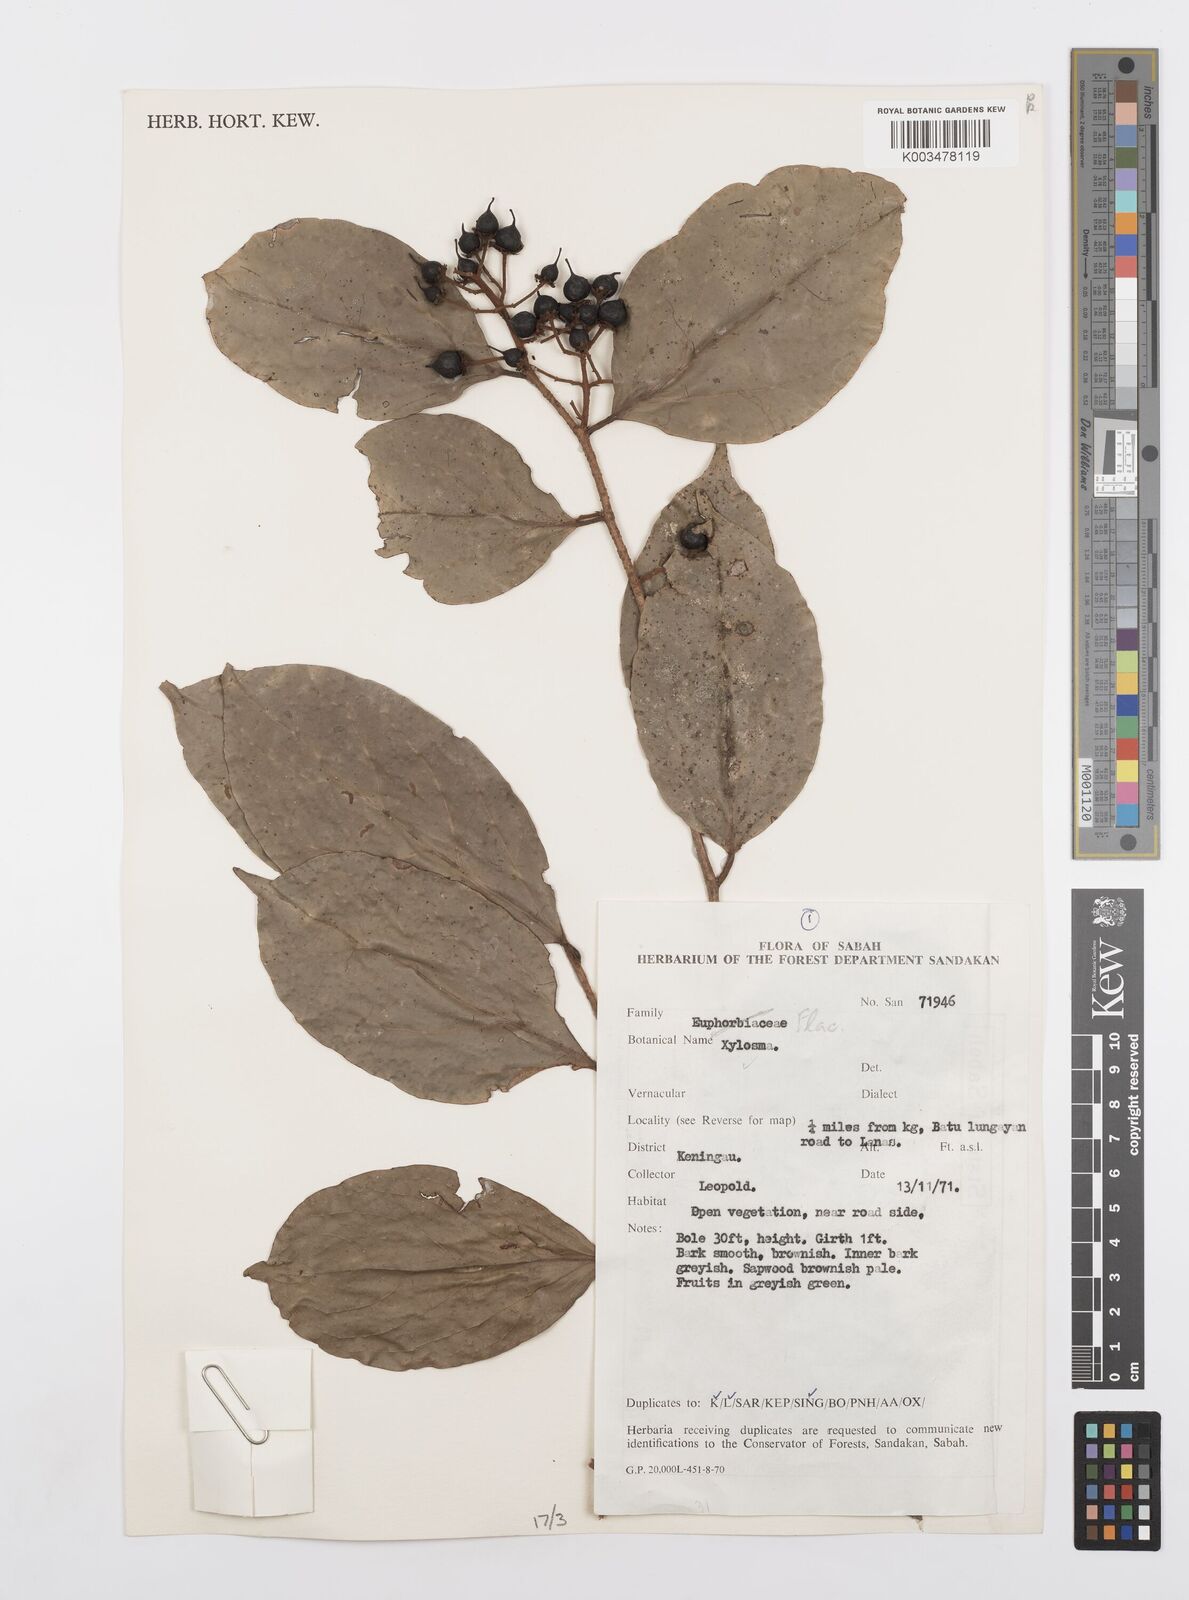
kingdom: Plantae
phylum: Tracheophyta
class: Magnoliopsida
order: Malpighiales
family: Salicaceae
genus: Scolopia
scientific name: Scolopia
